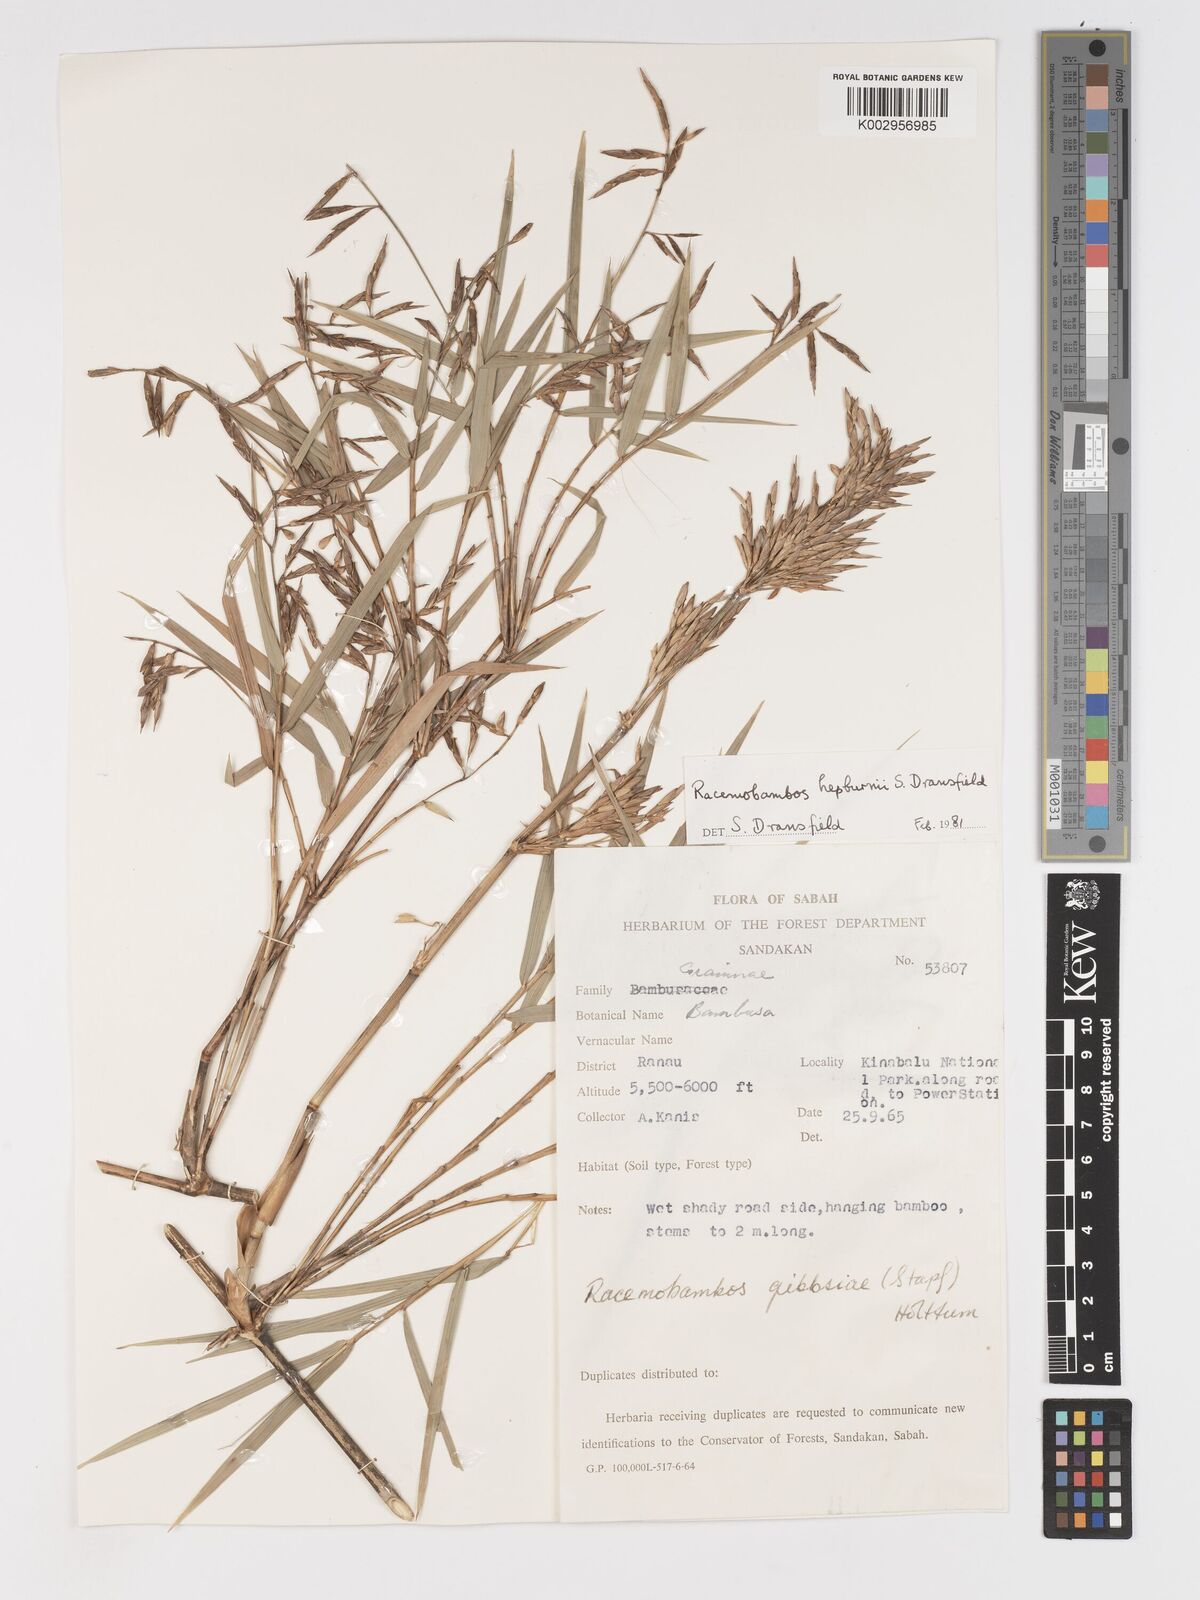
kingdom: Plantae
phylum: Tracheophyta
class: Liliopsida
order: Poales
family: Poaceae
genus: Racemobambos
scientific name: Racemobambos hepburnii
